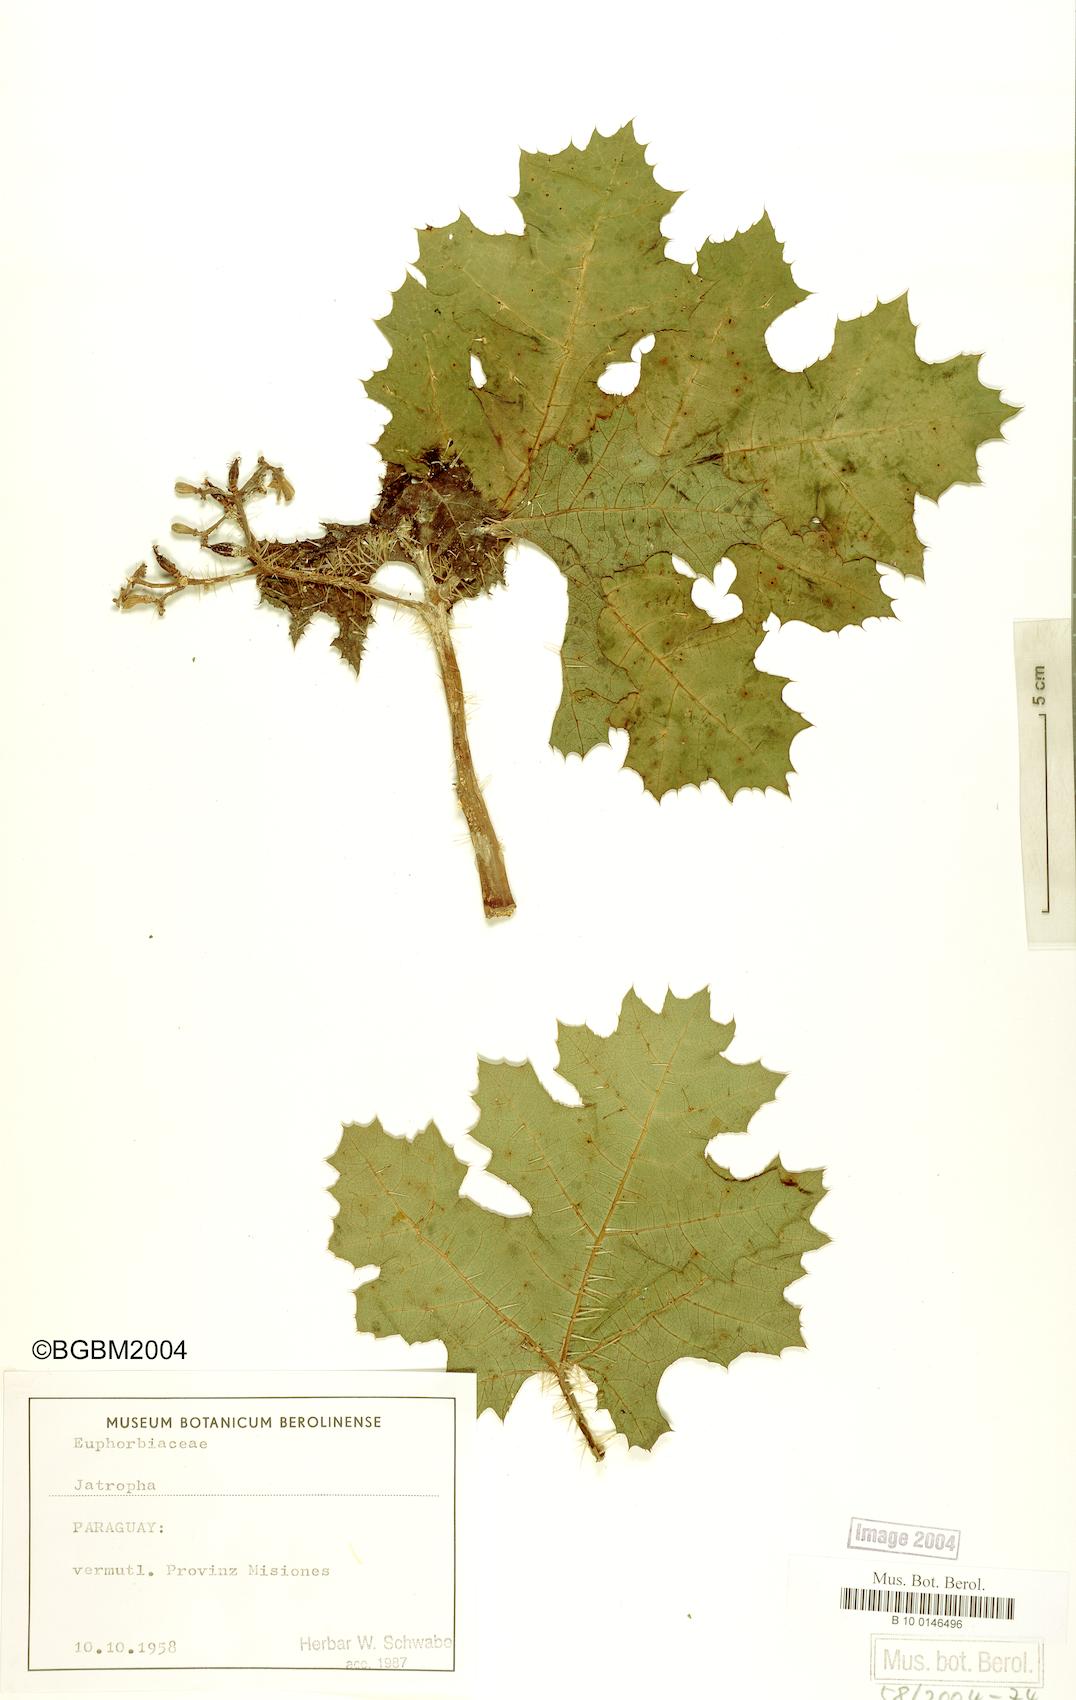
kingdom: Plantae
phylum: Tracheophyta
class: Magnoliopsida
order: Malpighiales
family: Euphorbiaceae
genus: Jatropha
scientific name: Jatropha
